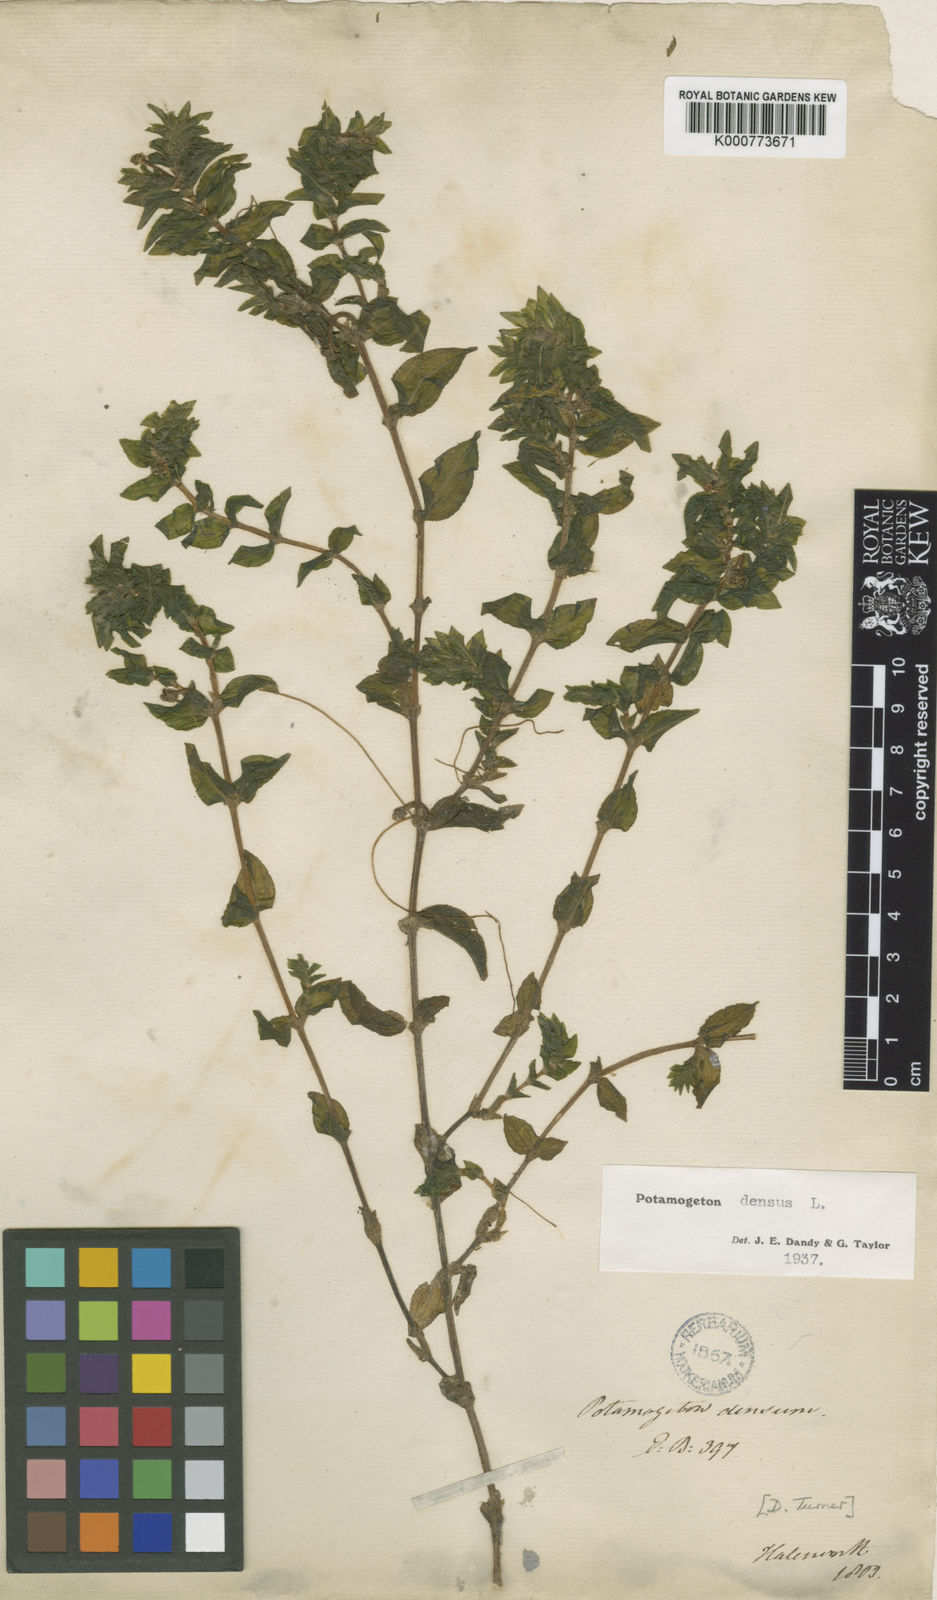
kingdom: Plantae
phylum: Tracheophyta
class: Liliopsida
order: Alismatales
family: Potamogetonaceae
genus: Groenlandia
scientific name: Groenlandia densa
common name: Opposite-leaved pondweed
